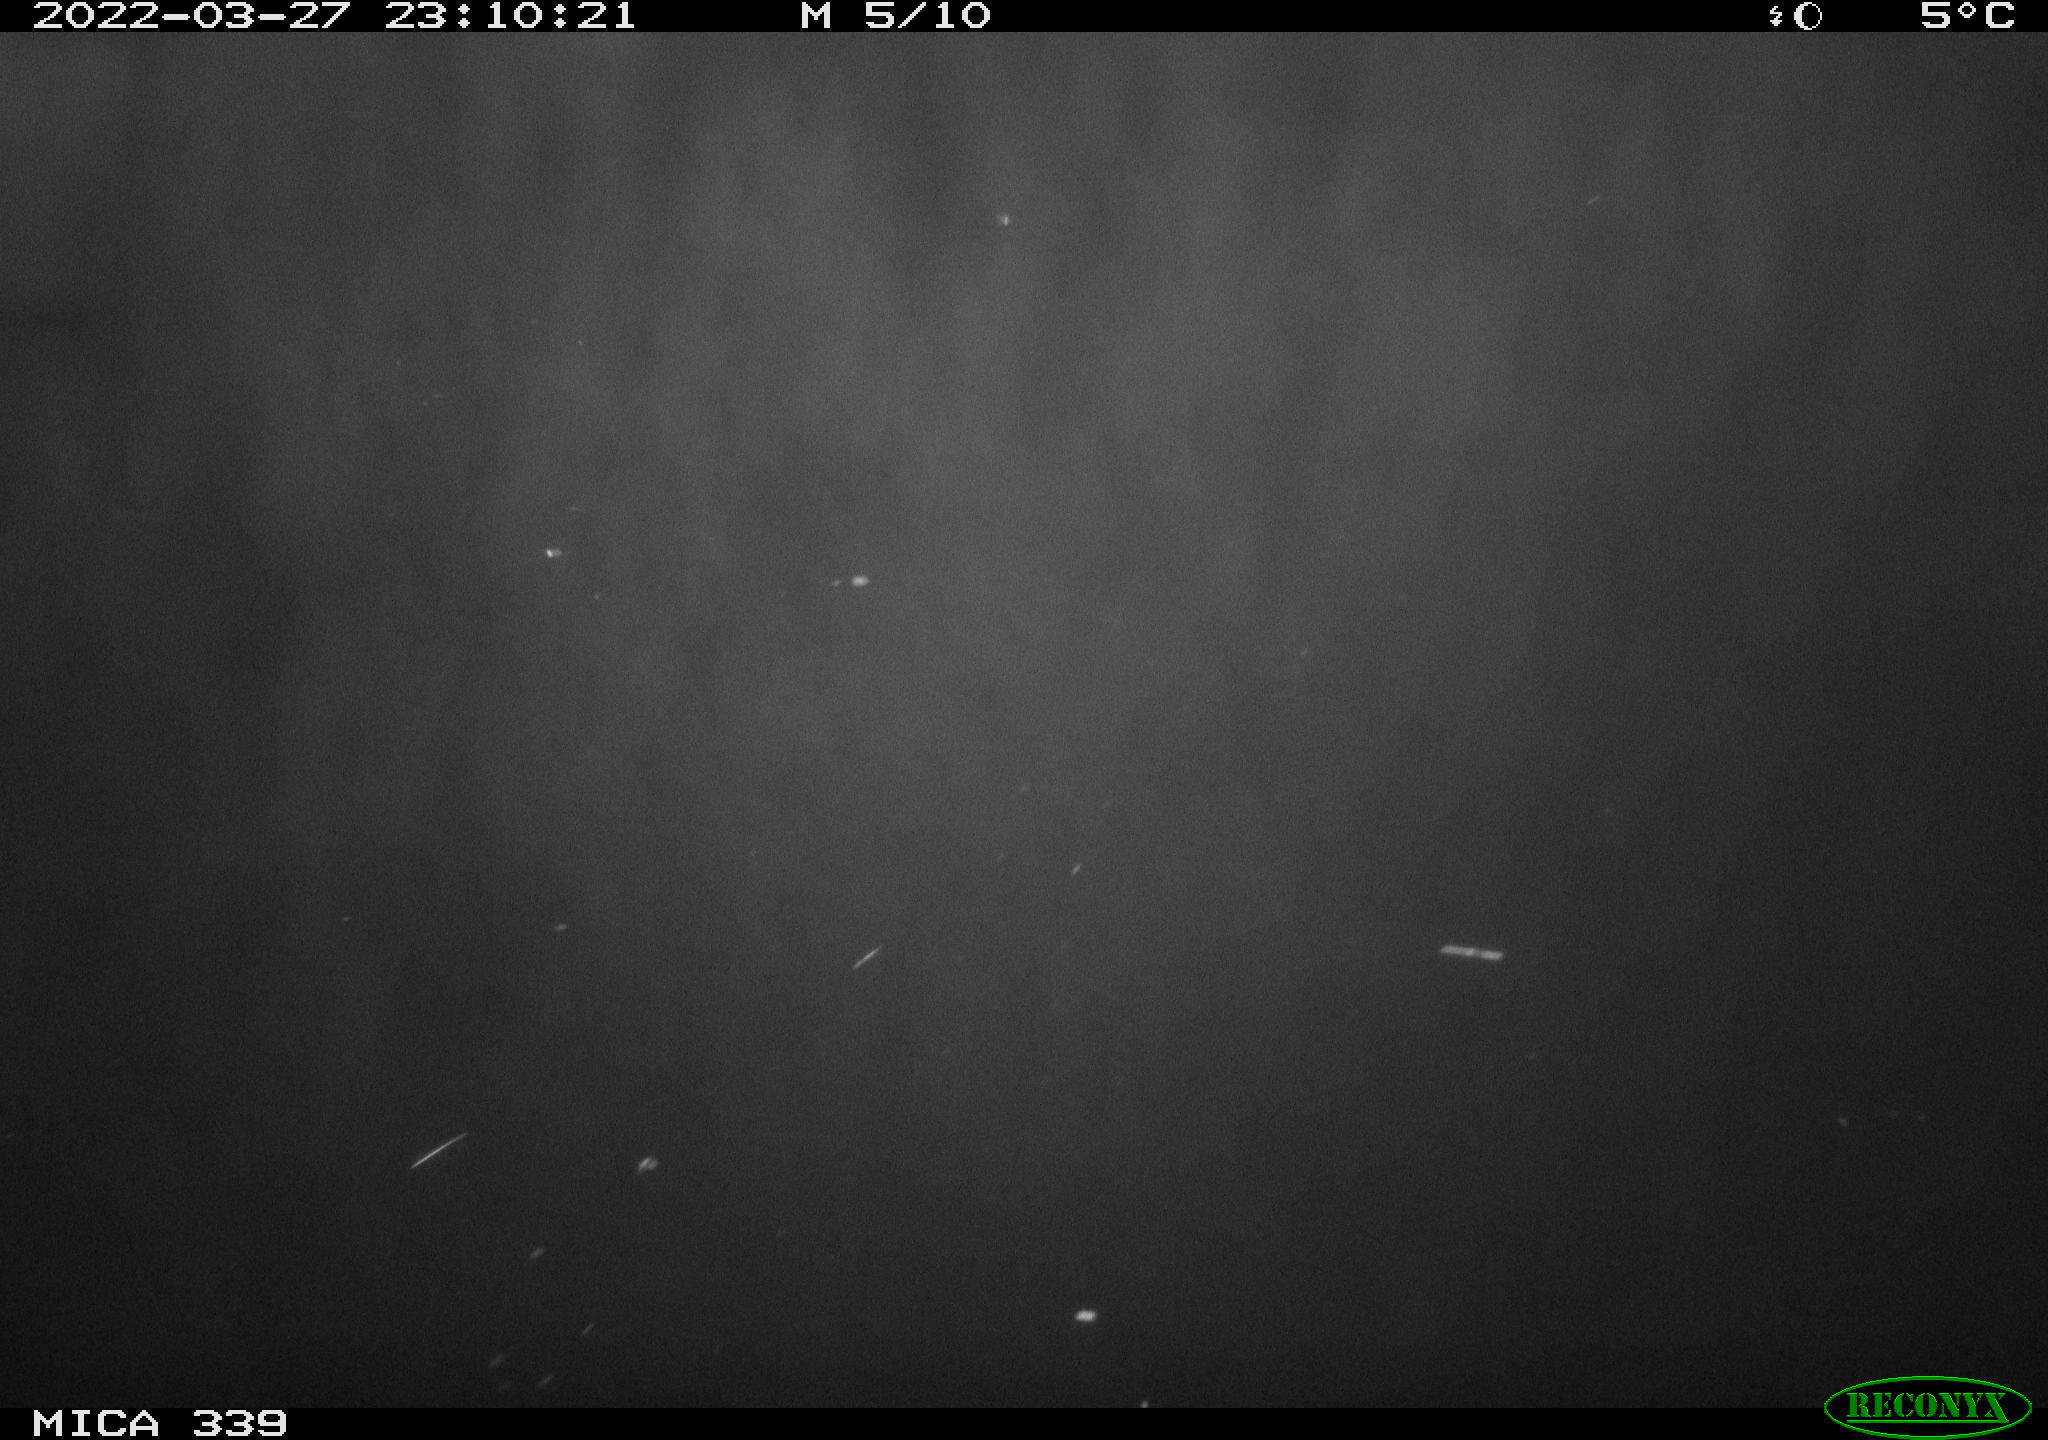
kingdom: Animalia
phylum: Chordata
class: Mammalia
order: Rodentia
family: Cricetidae
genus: Ondatra
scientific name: Ondatra zibethicus
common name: Muskrat
